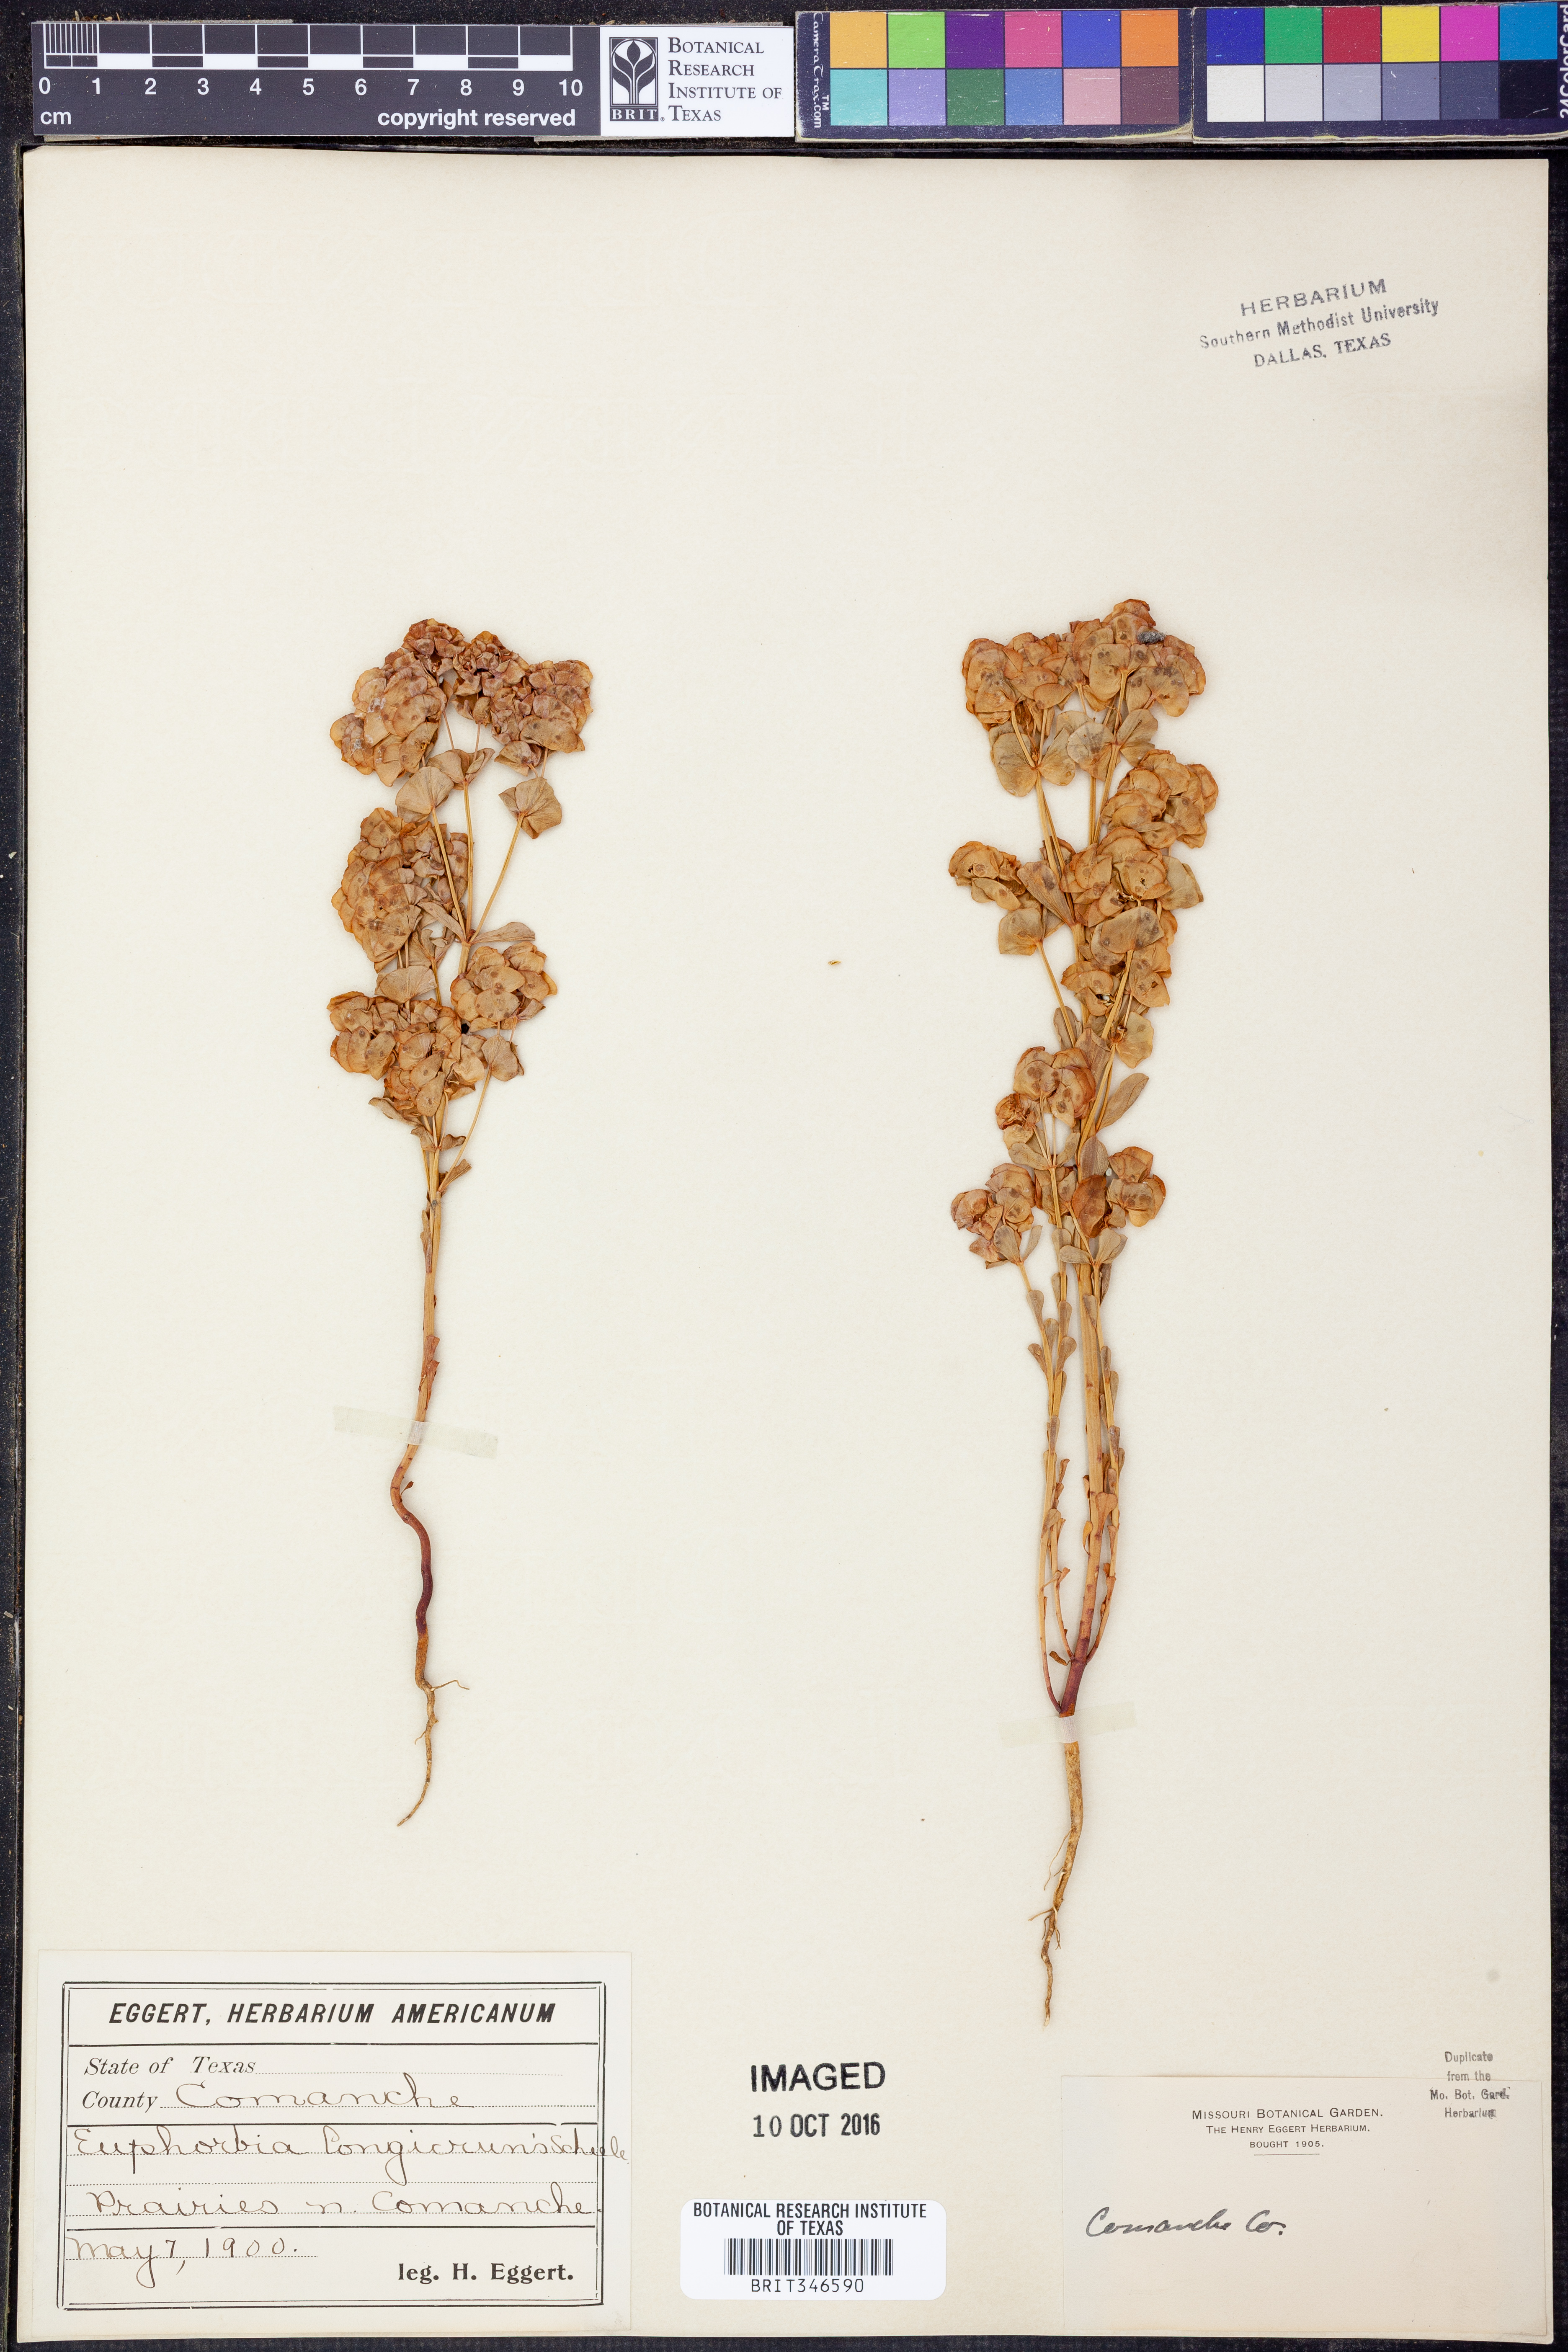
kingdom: Plantae
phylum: Tracheophyta
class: Magnoliopsida
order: Malpighiales
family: Euphorbiaceae
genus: Euphorbia
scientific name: Euphorbia longicruris
